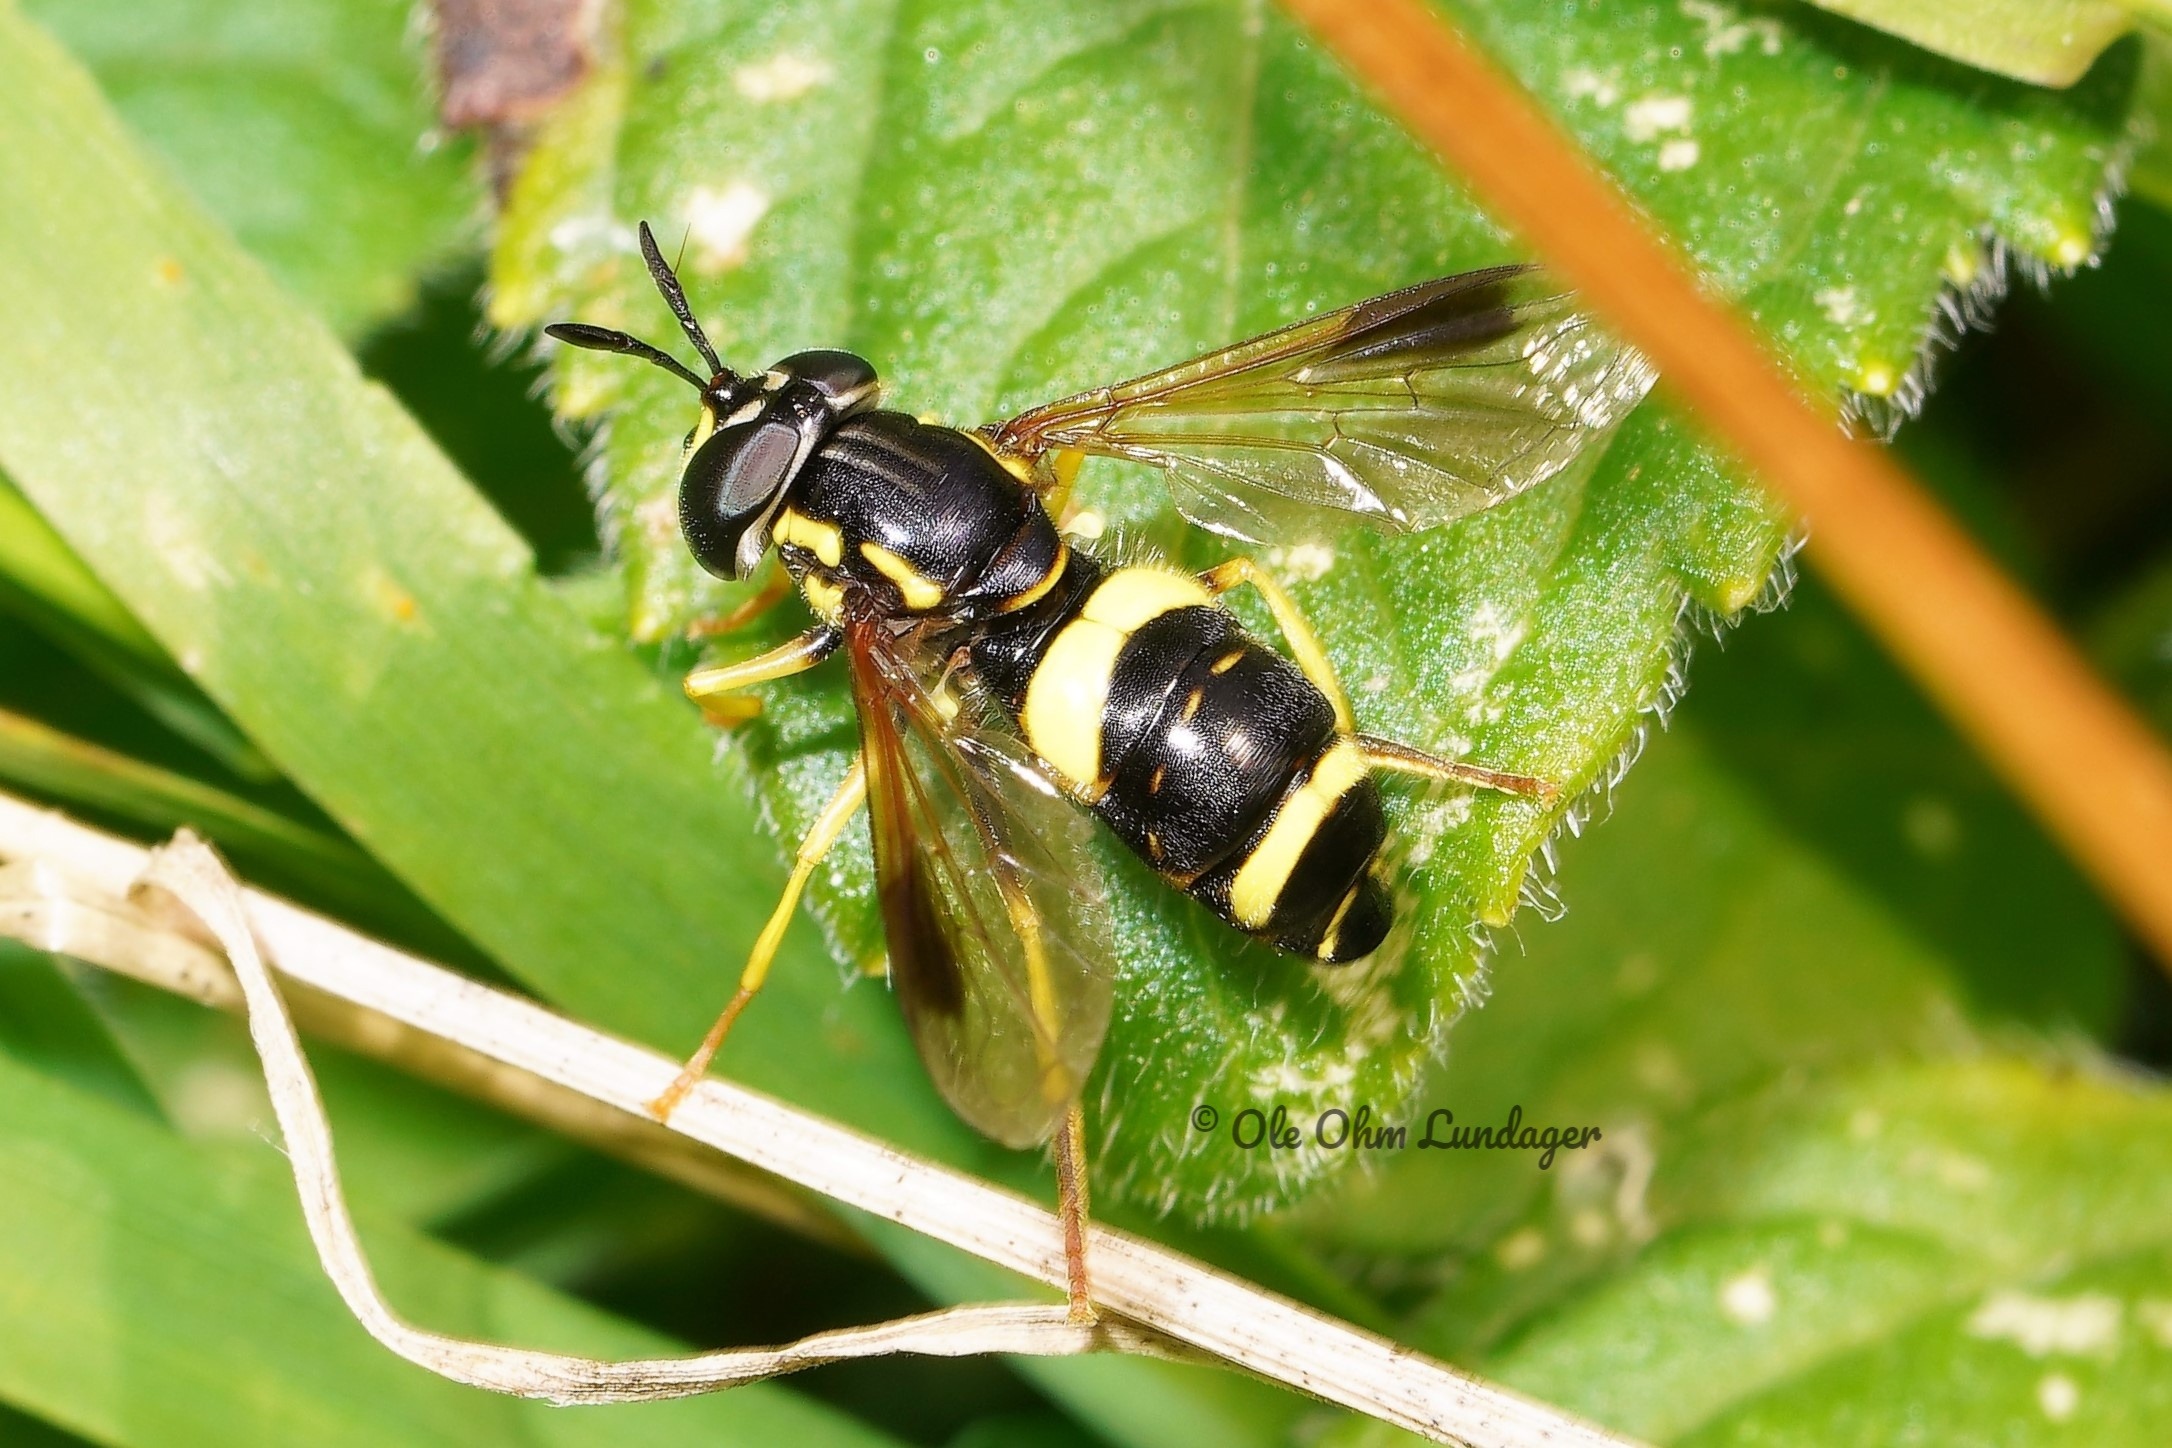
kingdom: Animalia
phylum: Arthropoda
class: Insecta
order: Diptera
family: Syrphidae
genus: Chrysotoxum
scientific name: Chrysotoxum bicincta
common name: Tobåndet hvepsesvirreflue
